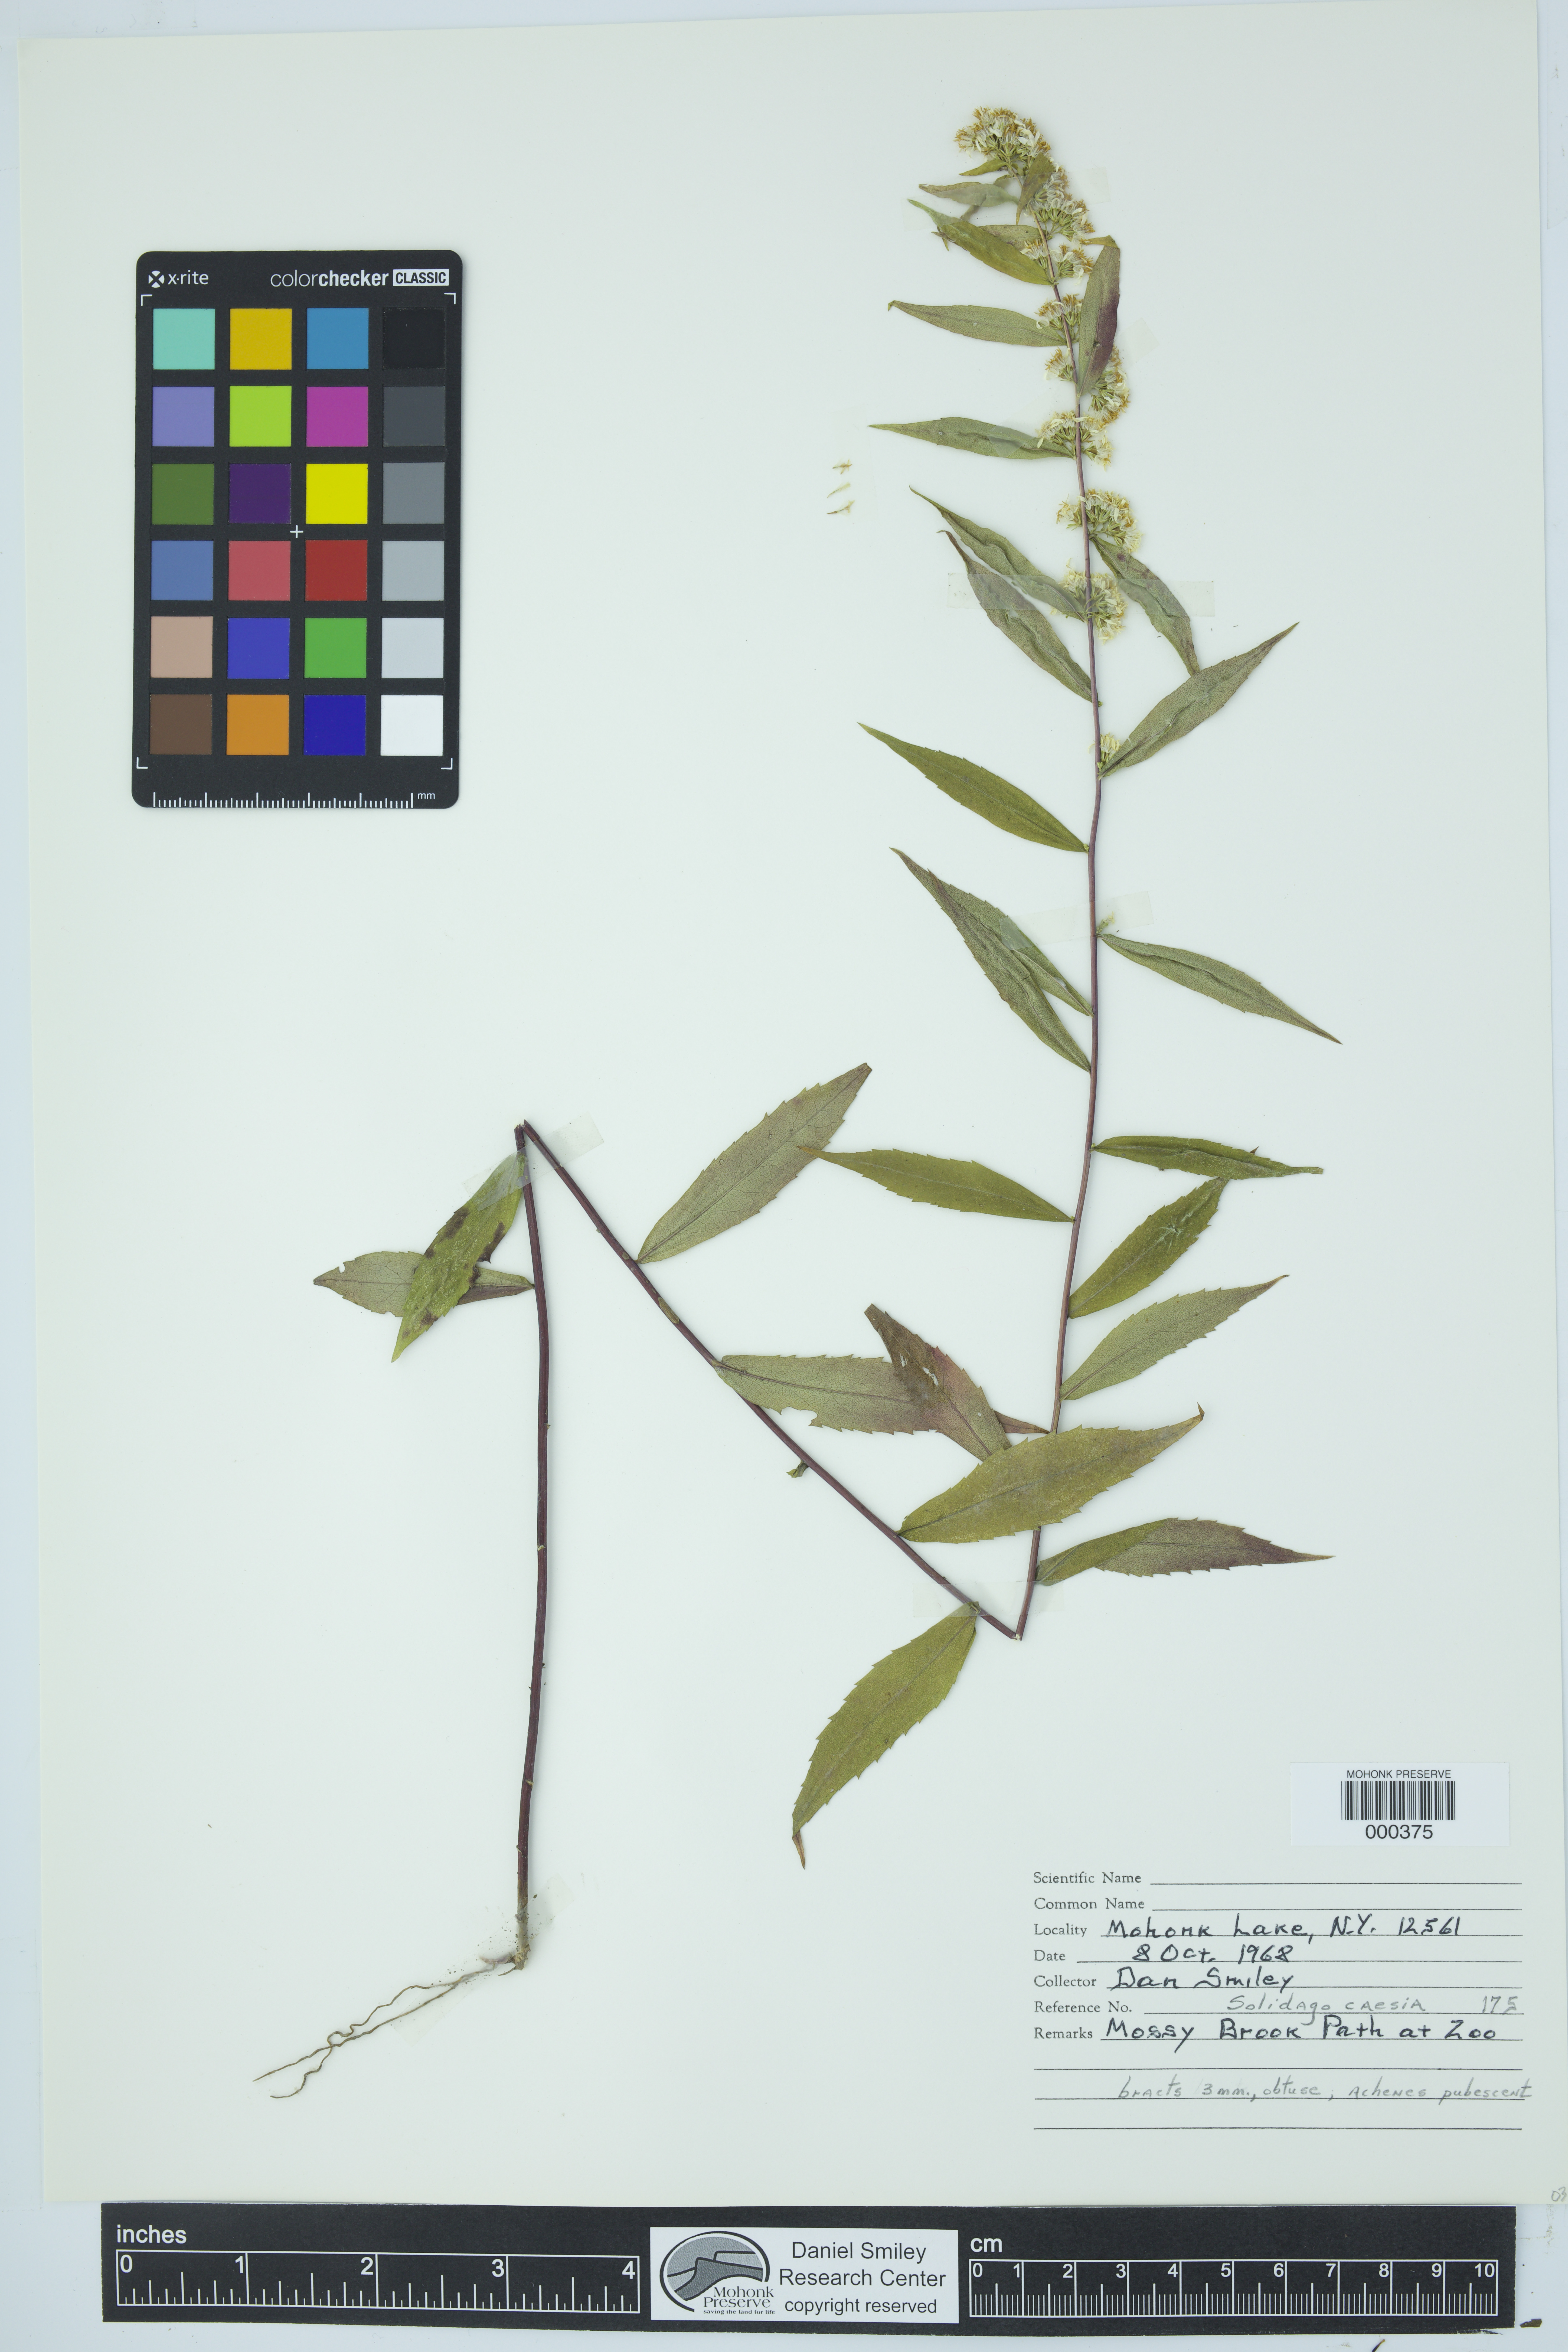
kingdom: Plantae
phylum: Tracheophyta
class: Magnoliopsida
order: Asterales
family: Asteraceae
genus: Solidago
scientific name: Solidago caesia
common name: Woodland goldenrod
